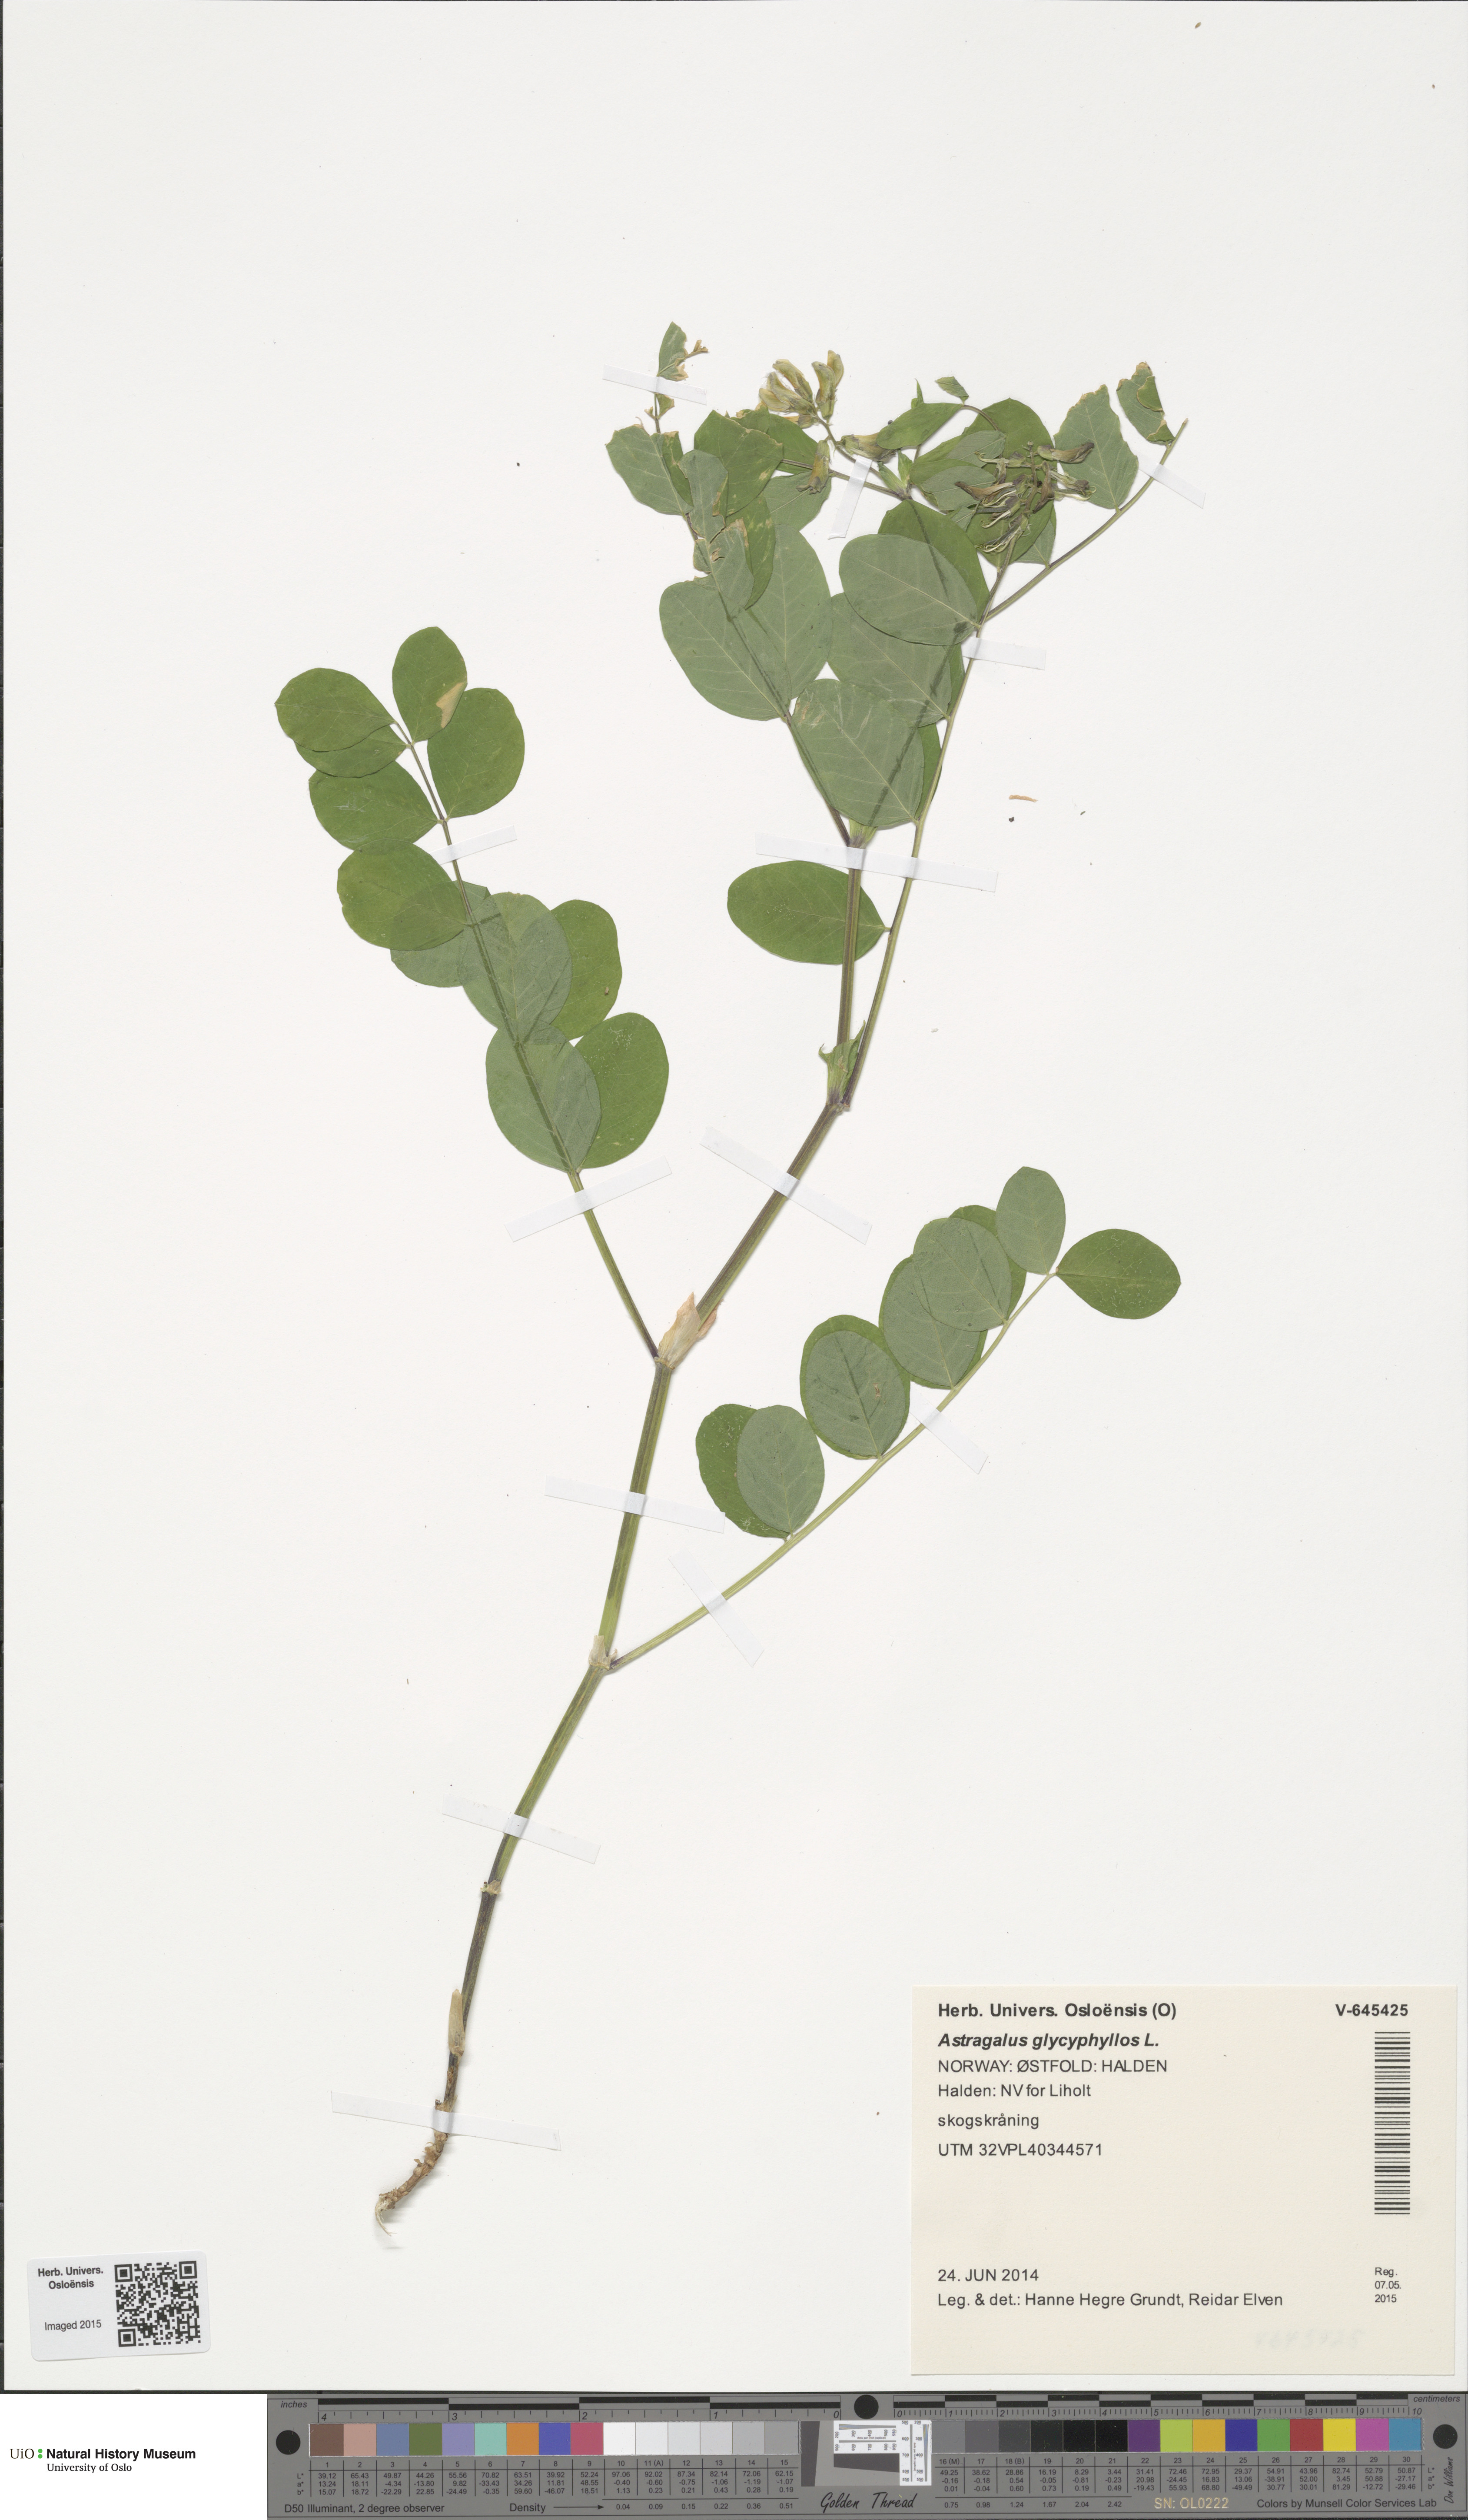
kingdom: Plantae
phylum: Tracheophyta
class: Magnoliopsida
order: Fabales
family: Fabaceae
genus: Astragalus
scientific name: Astragalus glycyphyllos
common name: Wild liquorice
